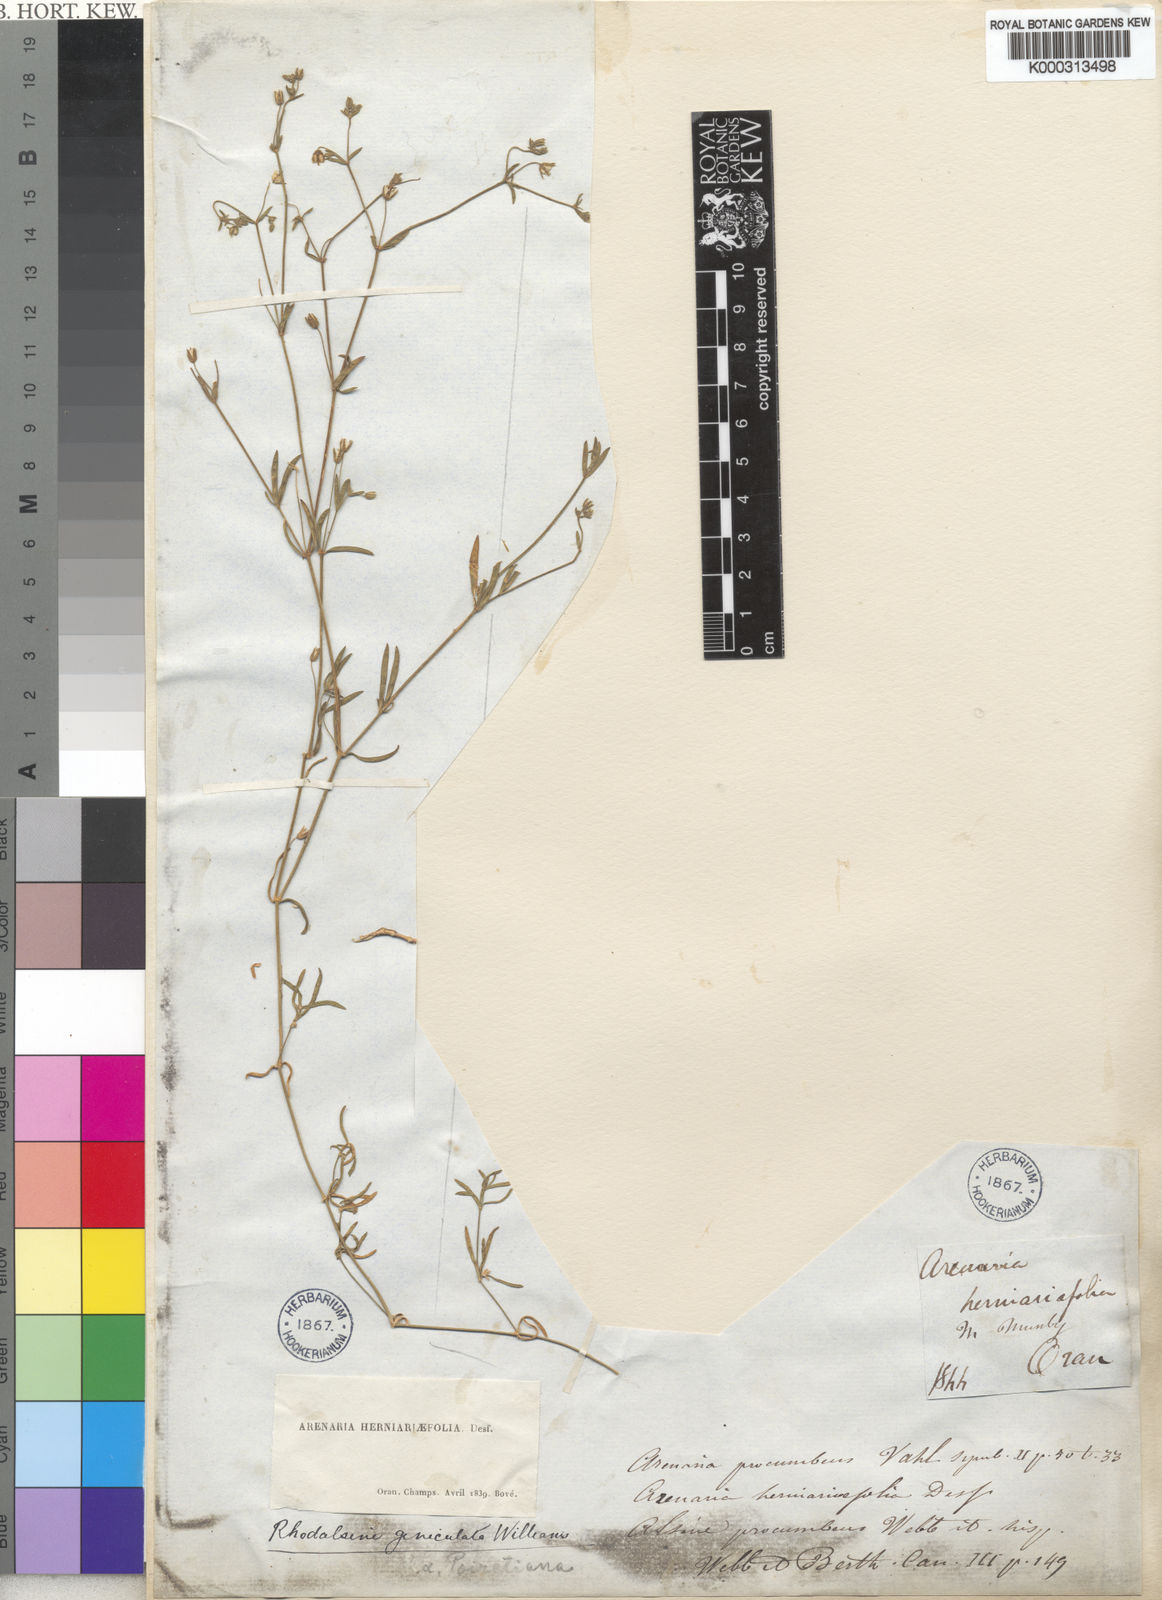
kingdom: Plantae
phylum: Tracheophyta
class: Magnoliopsida
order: Caryophyllales
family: Caryophyllaceae
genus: Rhodalsine
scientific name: Rhodalsine geniculata
